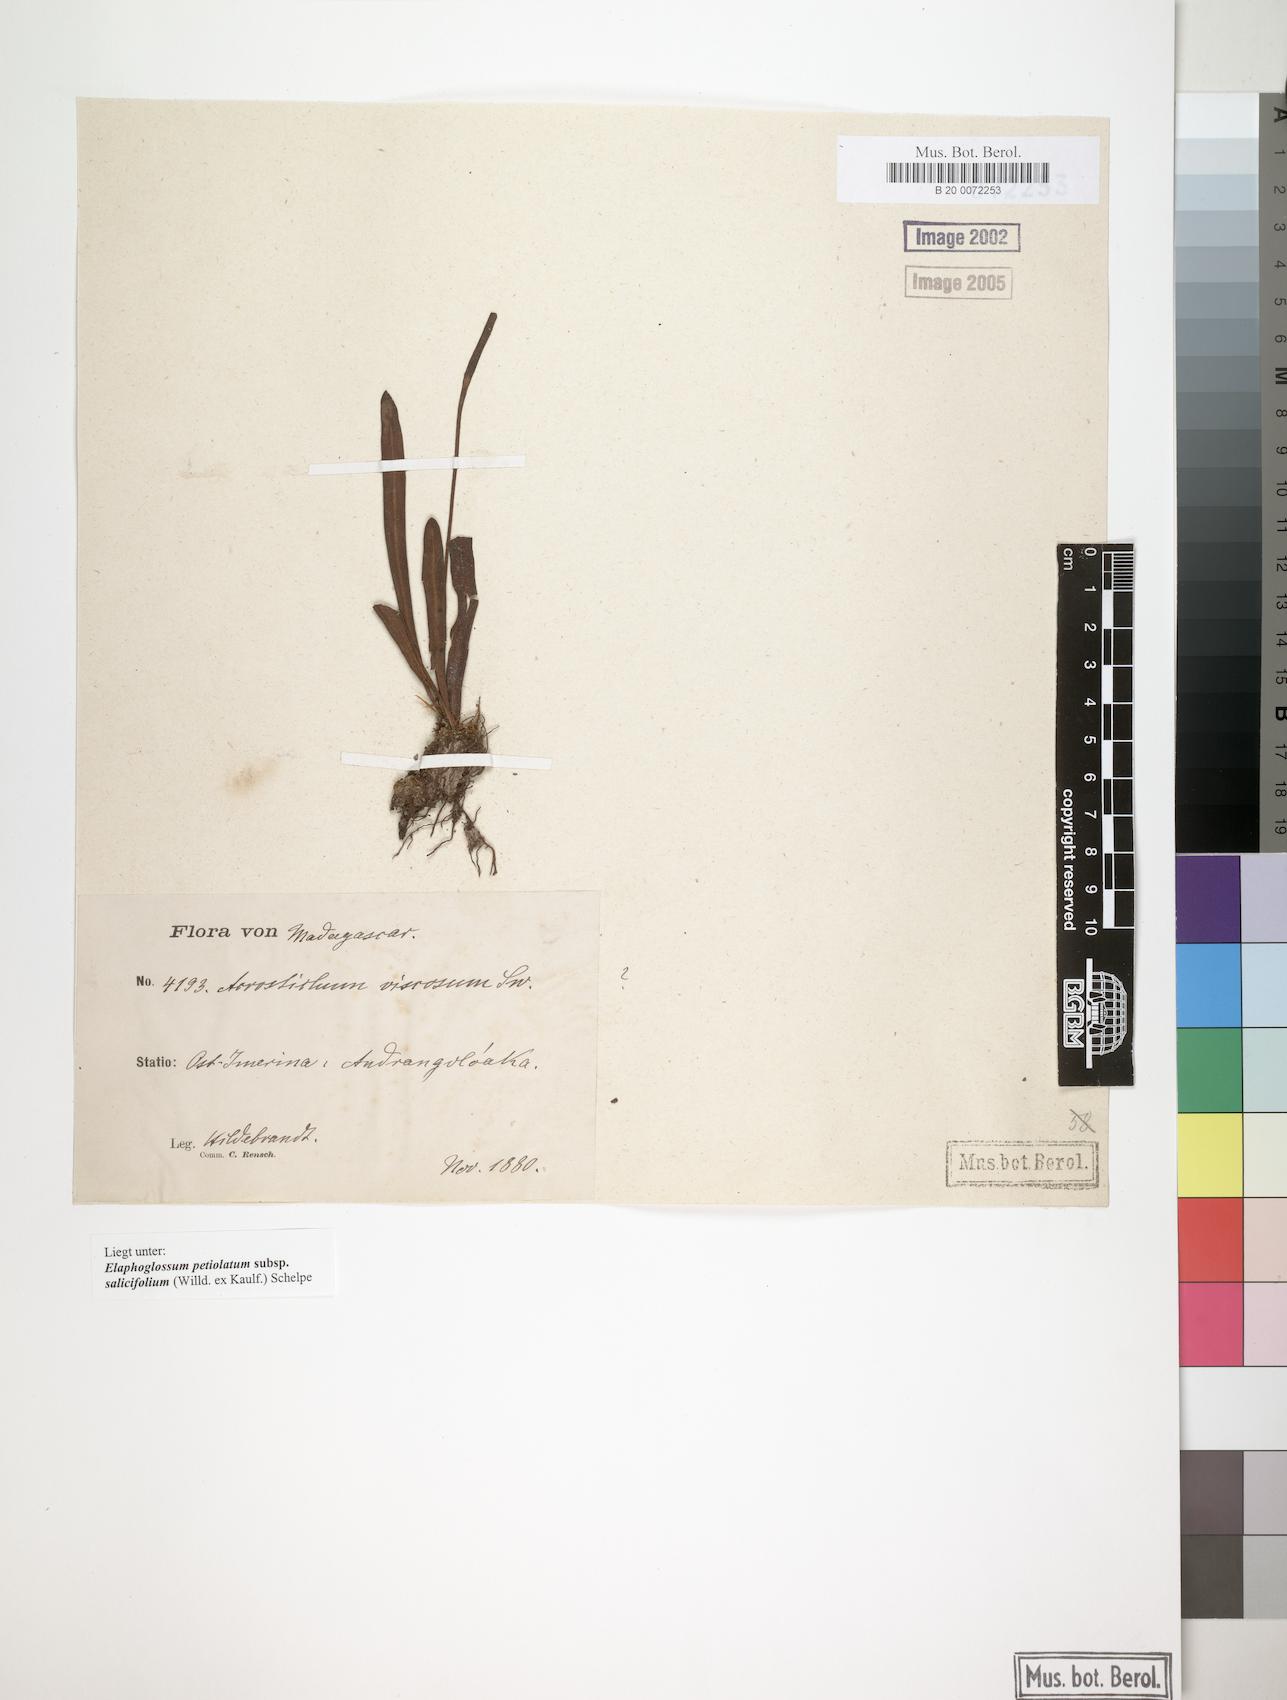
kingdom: Plantae
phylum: Tracheophyta
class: Polypodiopsida
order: Polypodiales
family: Dryopteridaceae
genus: Elaphoglossum
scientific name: Elaphoglossum lancifolium
